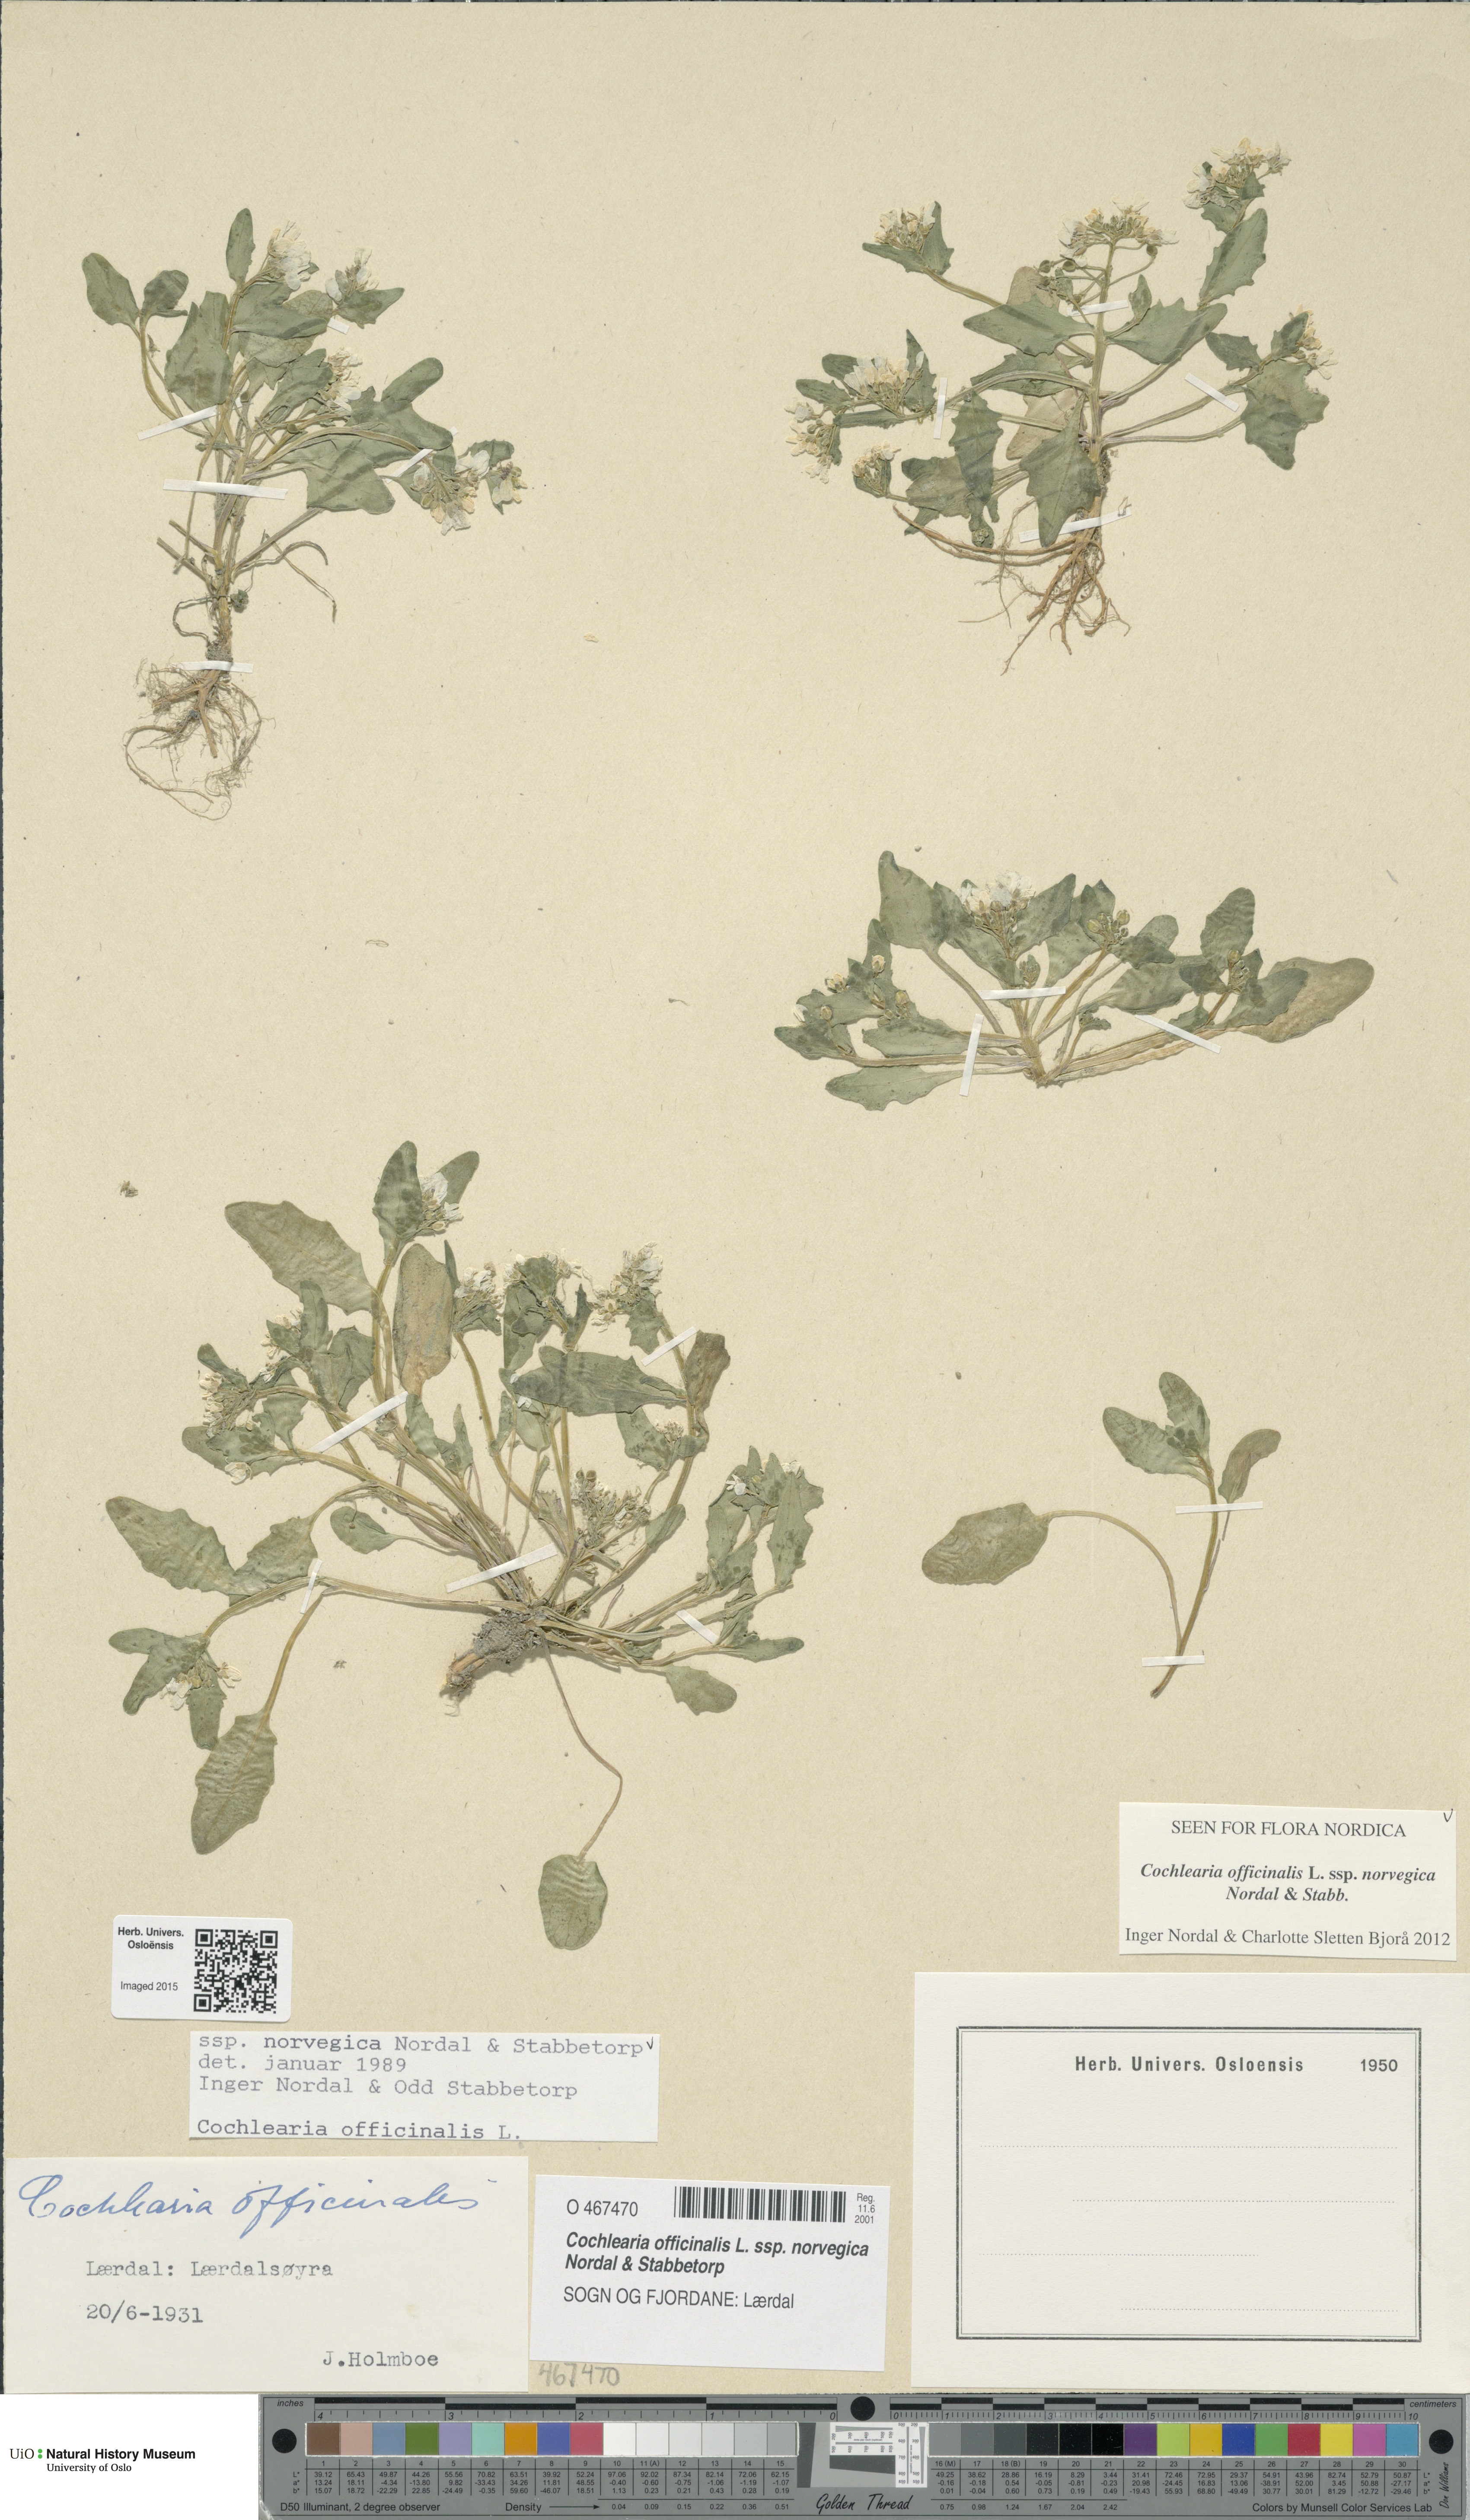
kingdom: Plantae
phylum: Tracheophyta
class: Magnoliopsida
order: Brassicales
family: Brassicaceae
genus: Cochlearia
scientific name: Cochlearia officinalis
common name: Scurvy-grass
